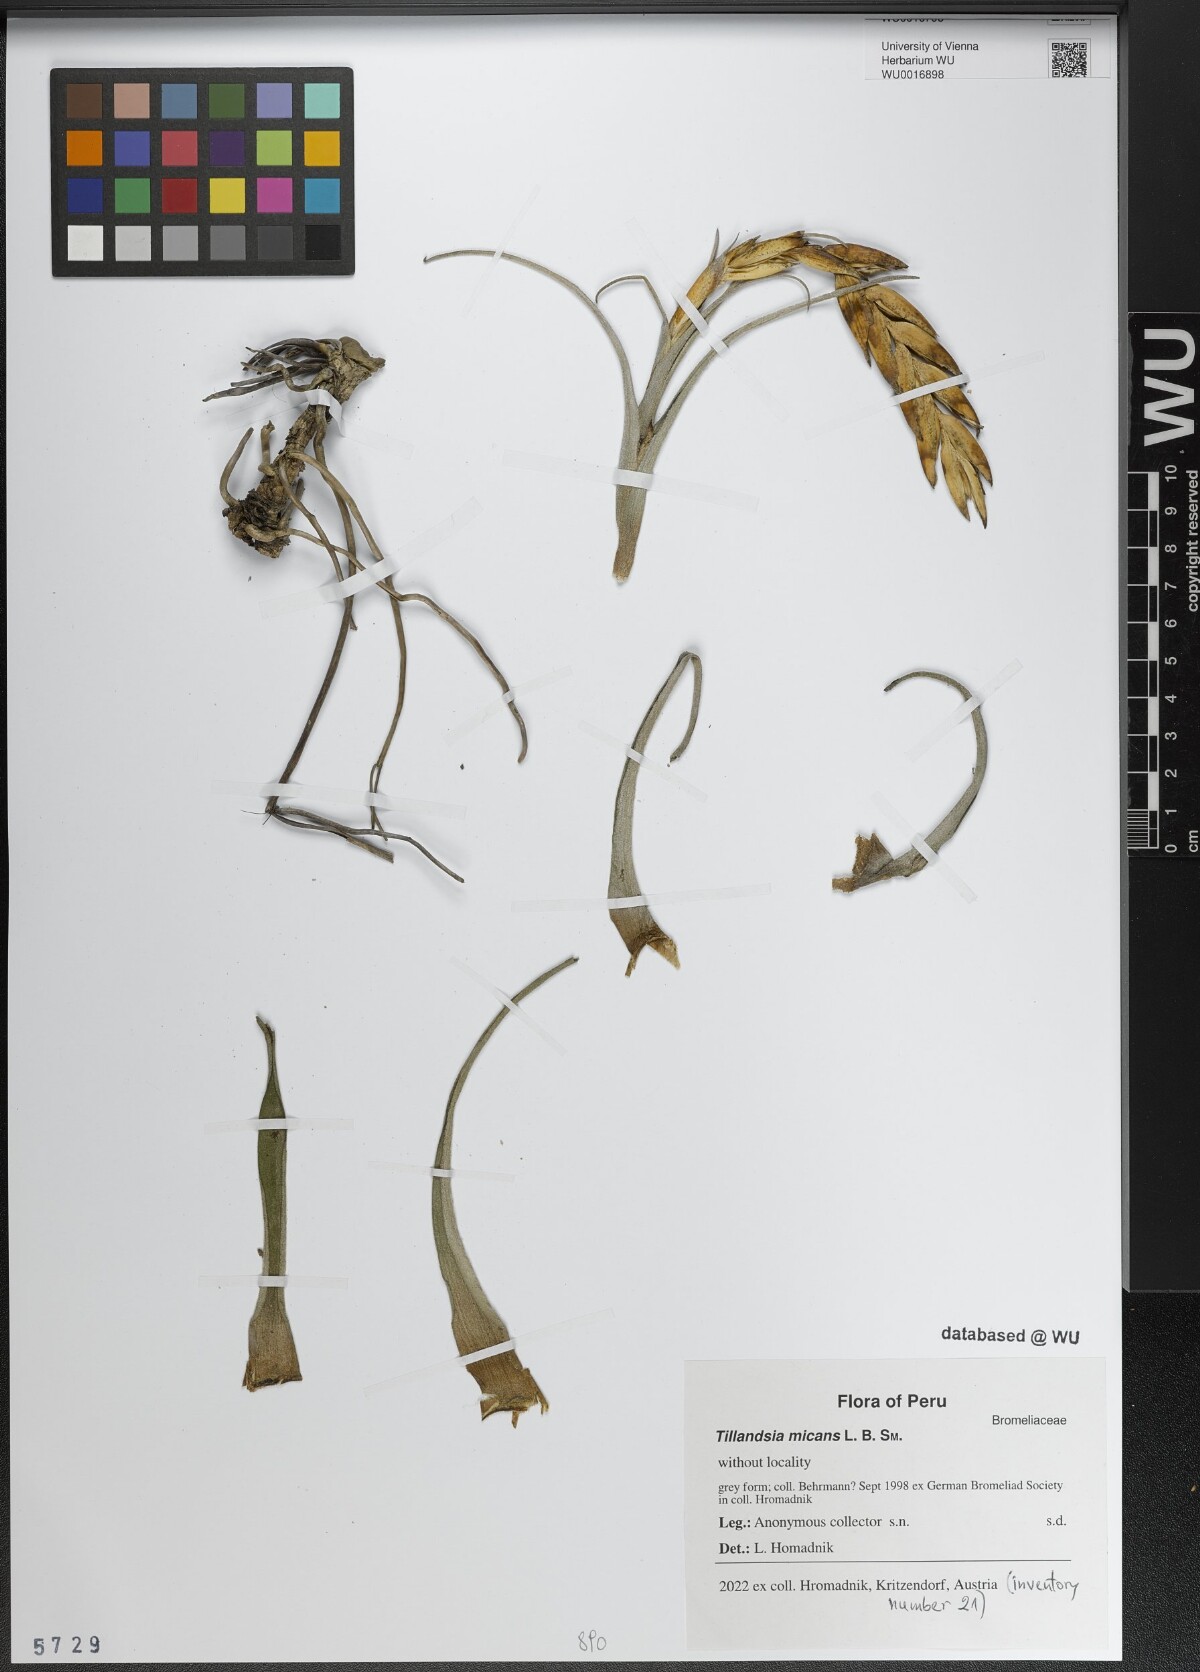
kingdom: Plantae
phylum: Tracheophyta
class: Liliopsida
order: Poales
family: Bromeliaceae
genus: Tillandsia
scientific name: Tillandsia micans
